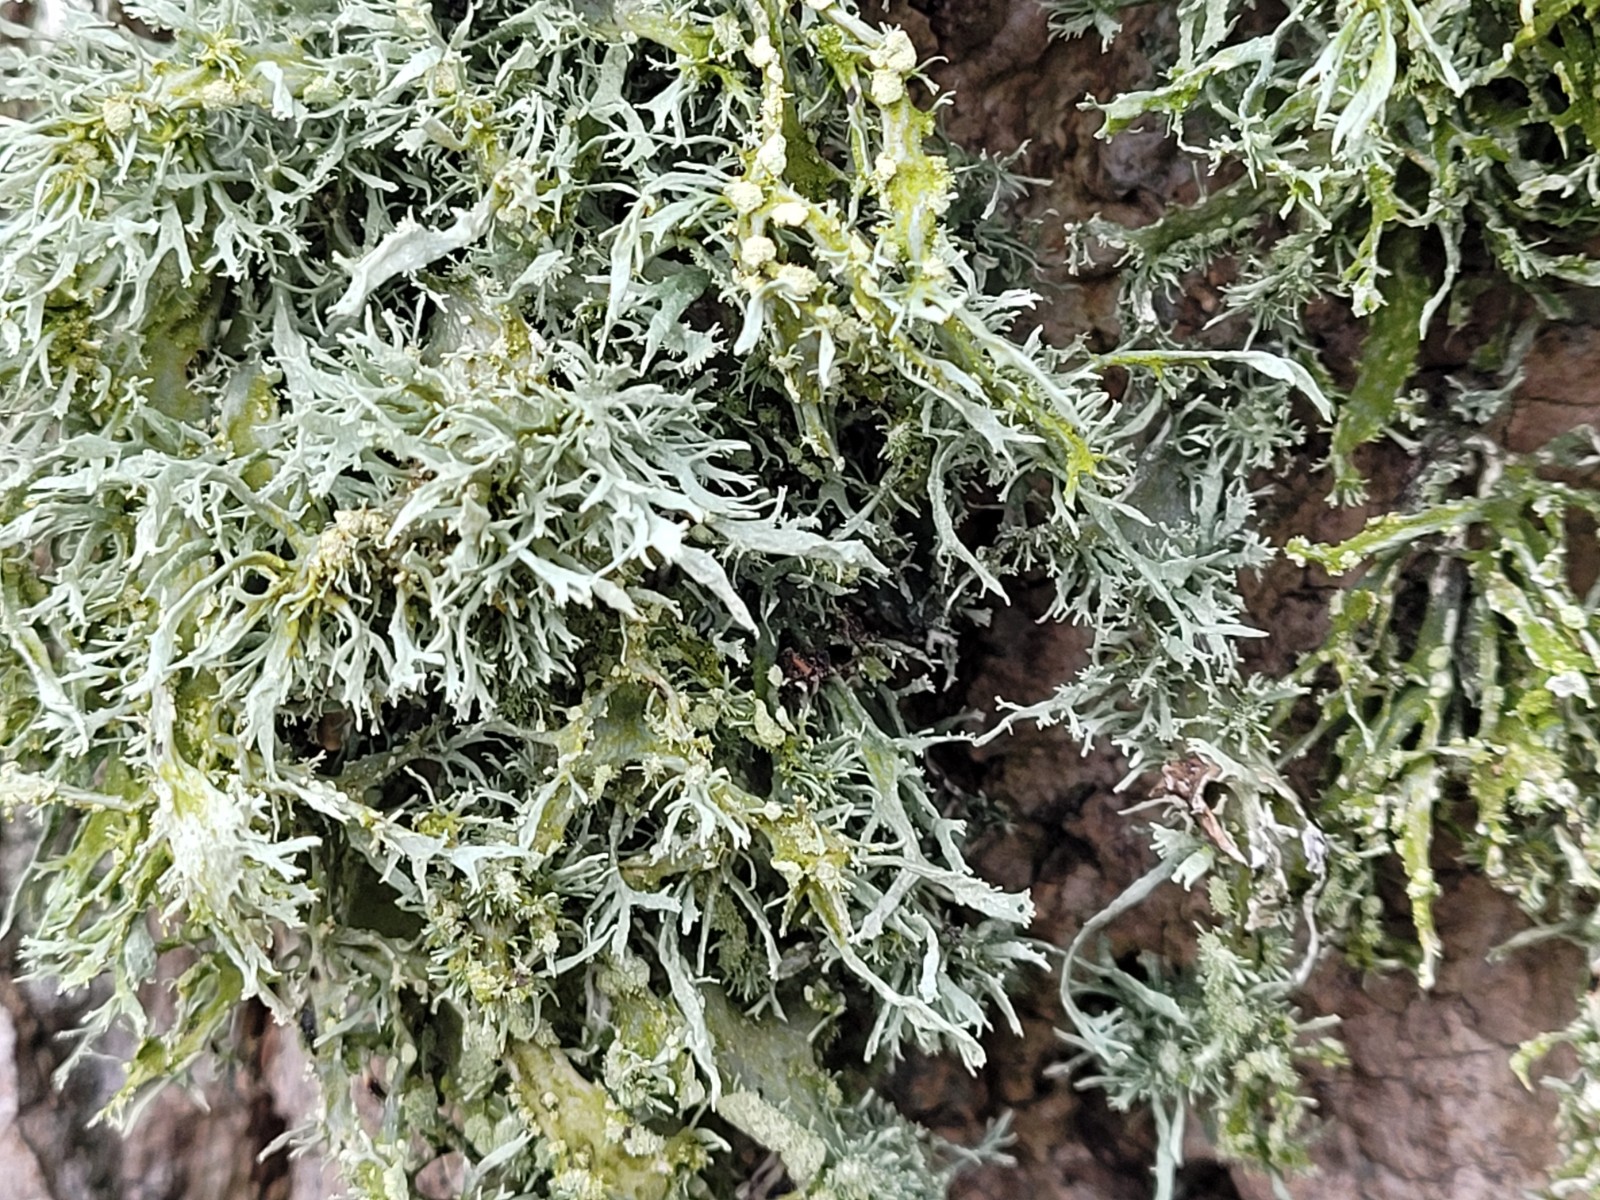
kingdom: Fungi
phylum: Ascomycota
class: Lecanoromycetes
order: Lecanorales
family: Ramalinaceae
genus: Ramalina
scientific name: Ramalina farinacea
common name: melet grenlav
